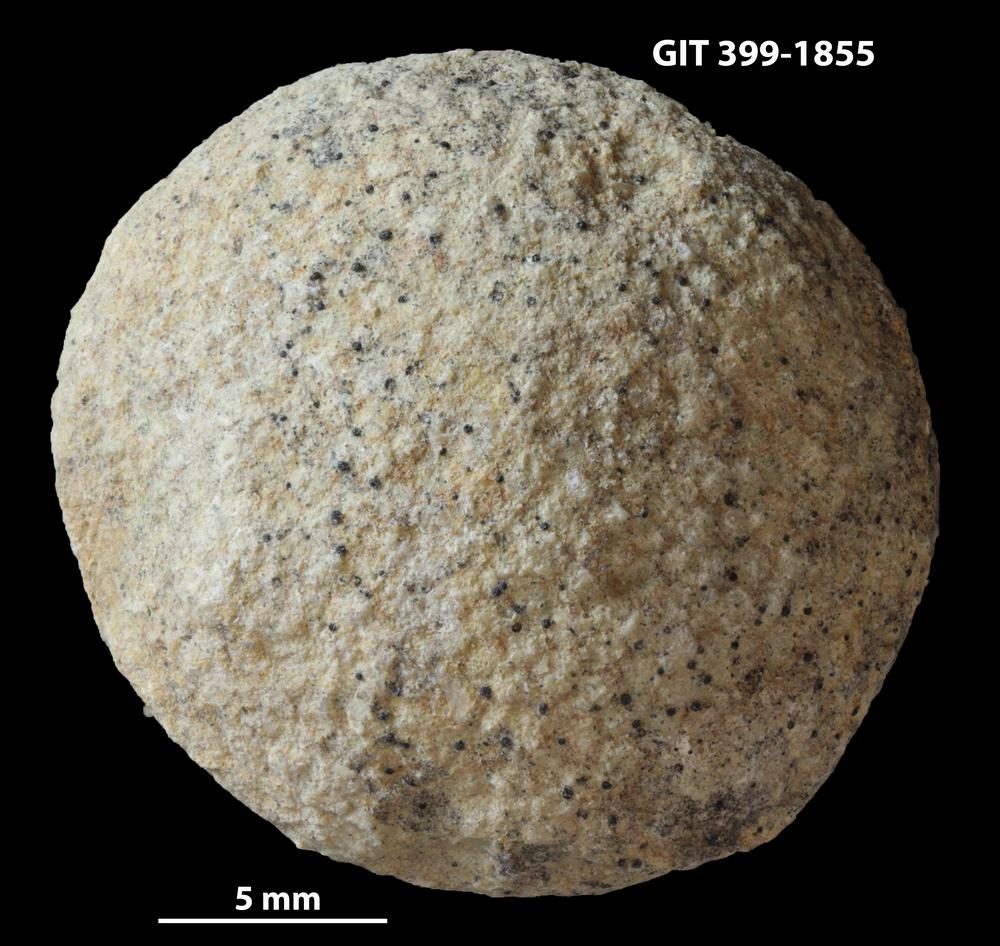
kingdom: Plantae
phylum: Chlorophyta
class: Ulvophyceae
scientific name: Ulvophyceae
